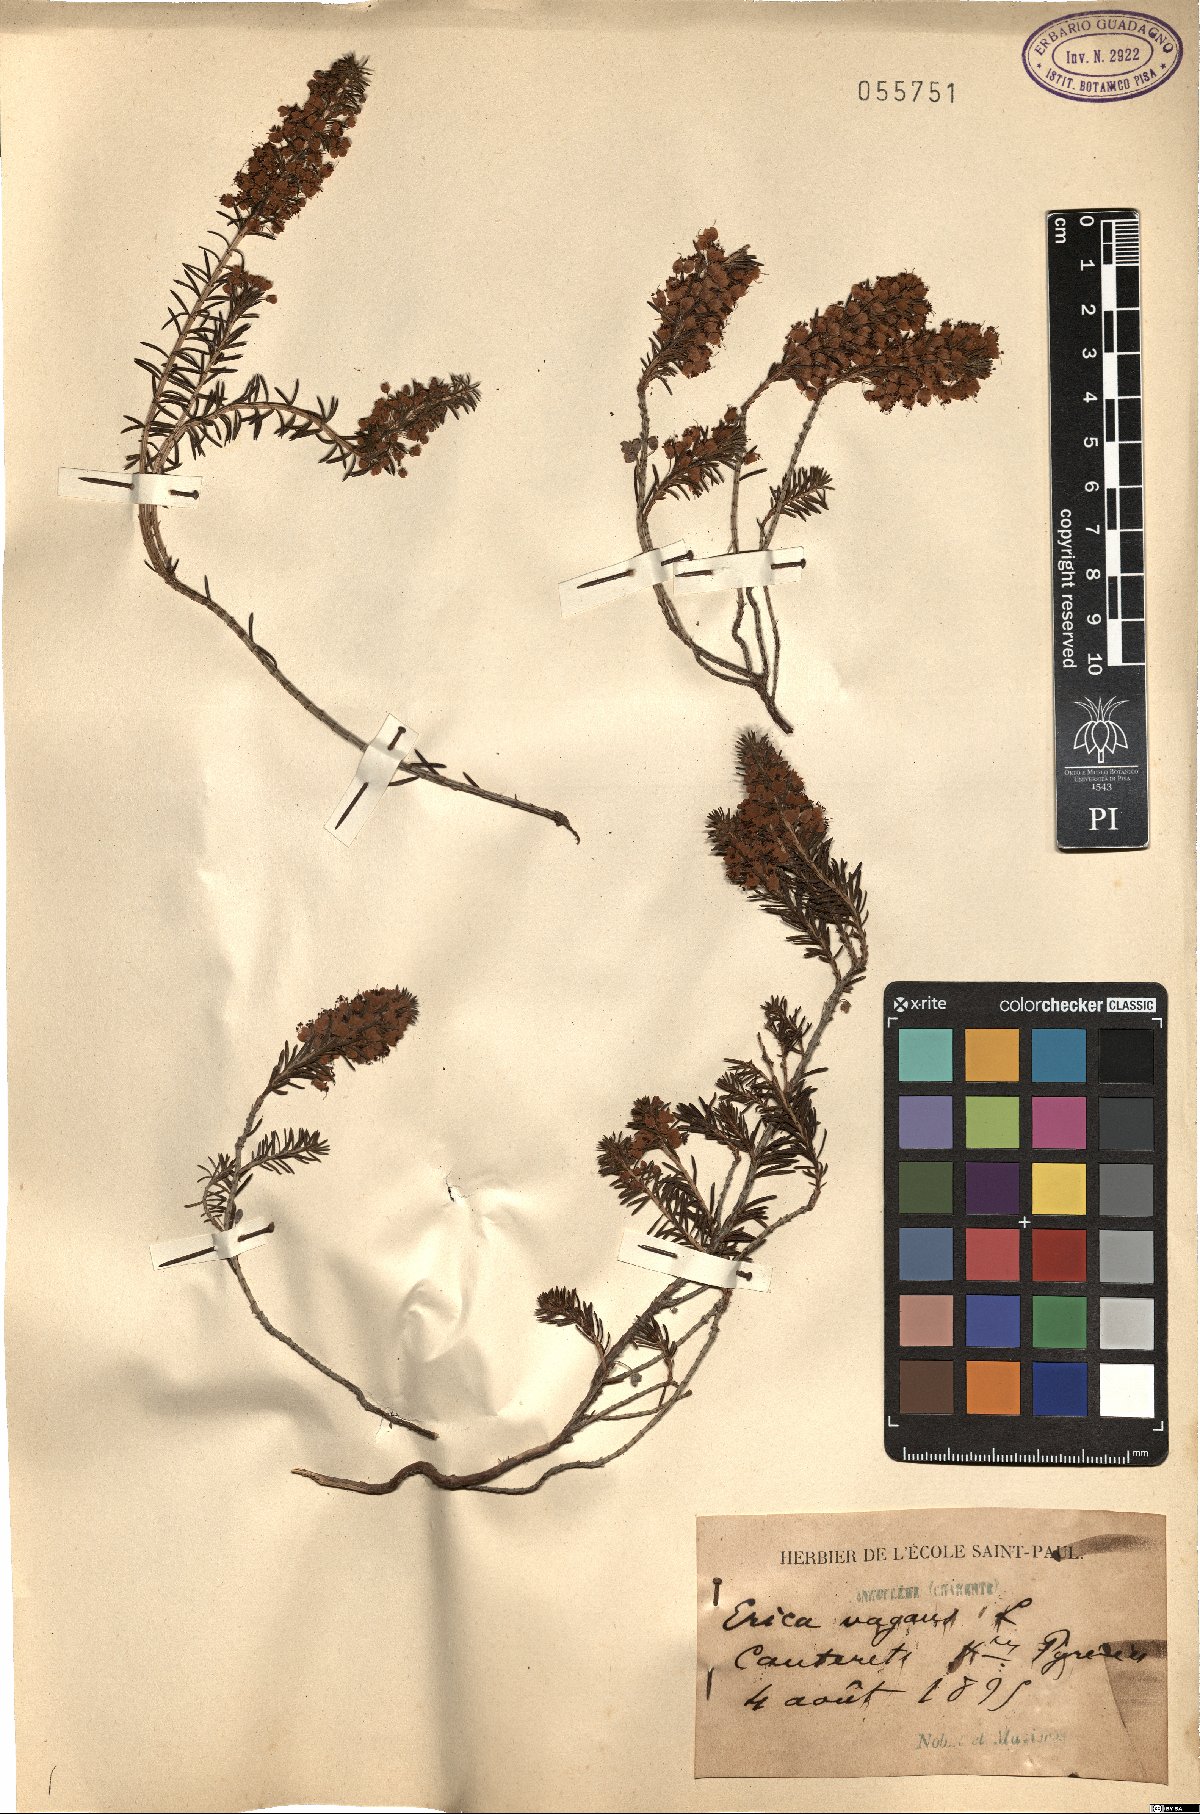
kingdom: Plantae
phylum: Tracheophyta
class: Magnoliopsida
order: Ericales
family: Ericaceae
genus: Erica
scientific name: Erica vagans
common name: Cornish heath
